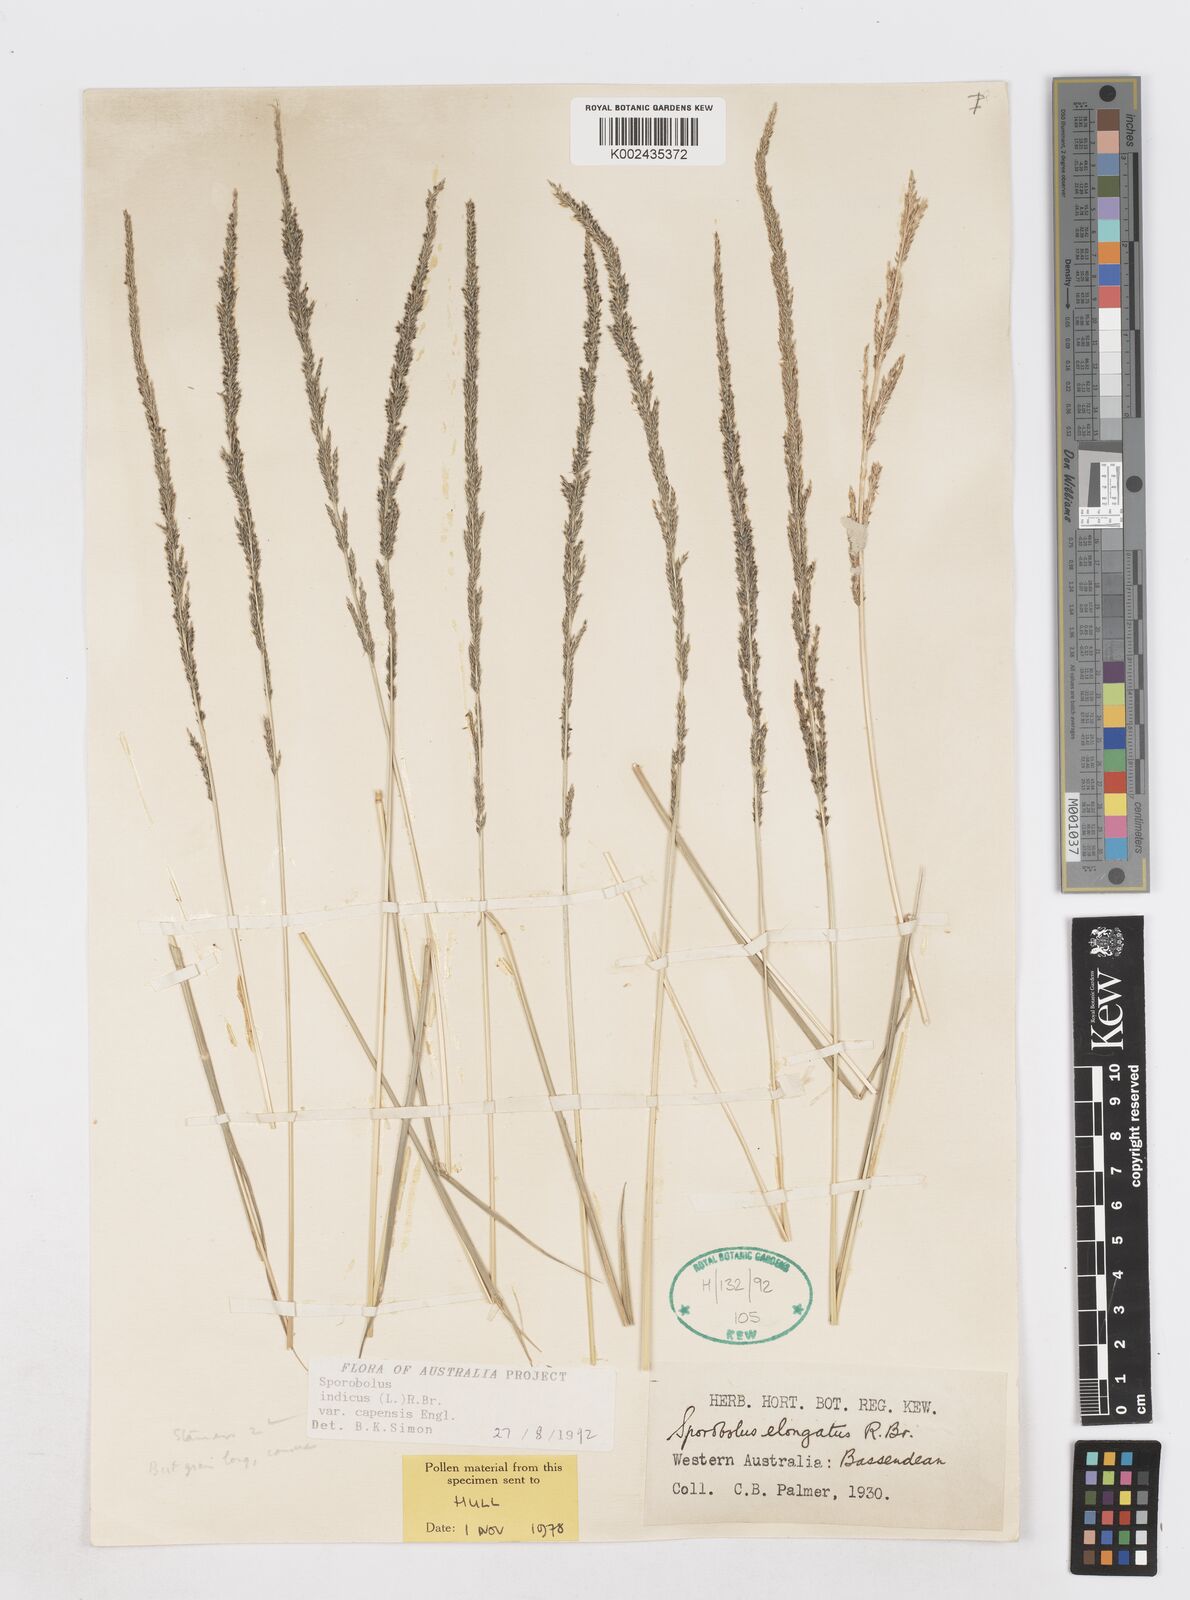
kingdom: Plantae
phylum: Tracheophyta
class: Liliopsida
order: Poales
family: Poaceae
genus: Sporobolus
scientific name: Sporobolus africanus
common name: African dropseed
